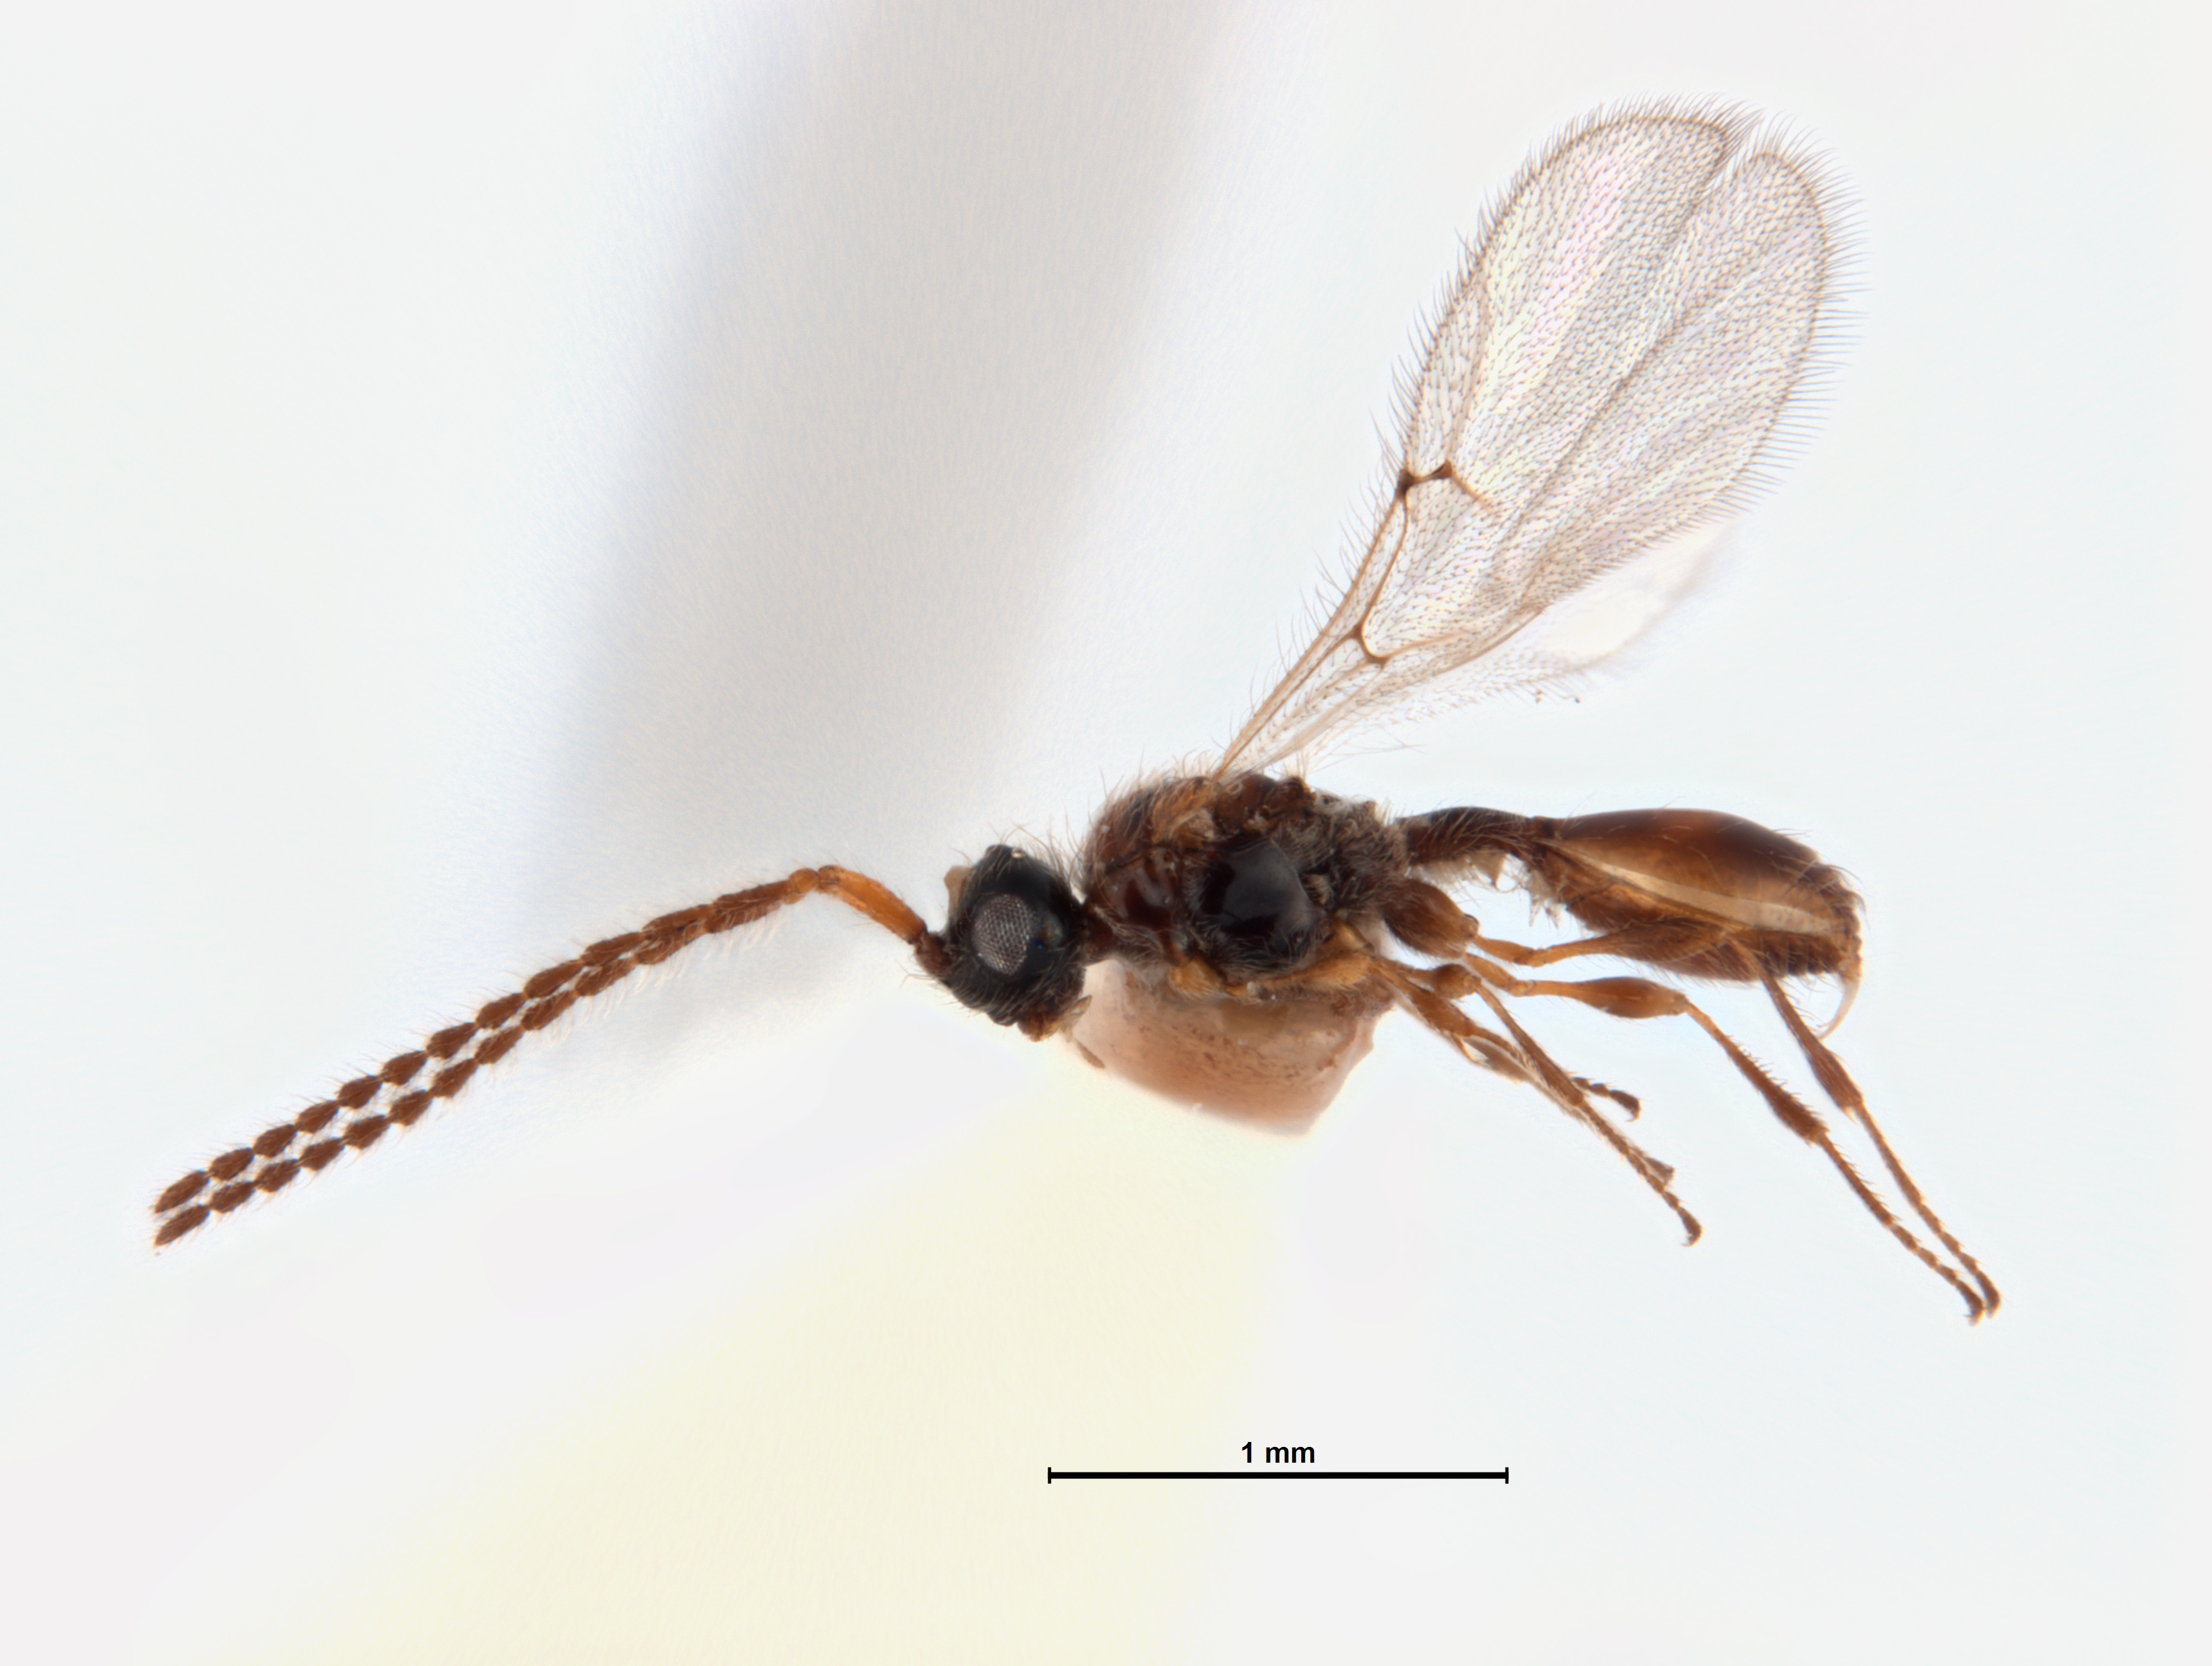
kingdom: Animalia
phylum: Arthropoda
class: Insecta
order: Hymenoptera
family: Diapriidae
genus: Pantolytomyia
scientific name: Pantolytomyia flocculosa
